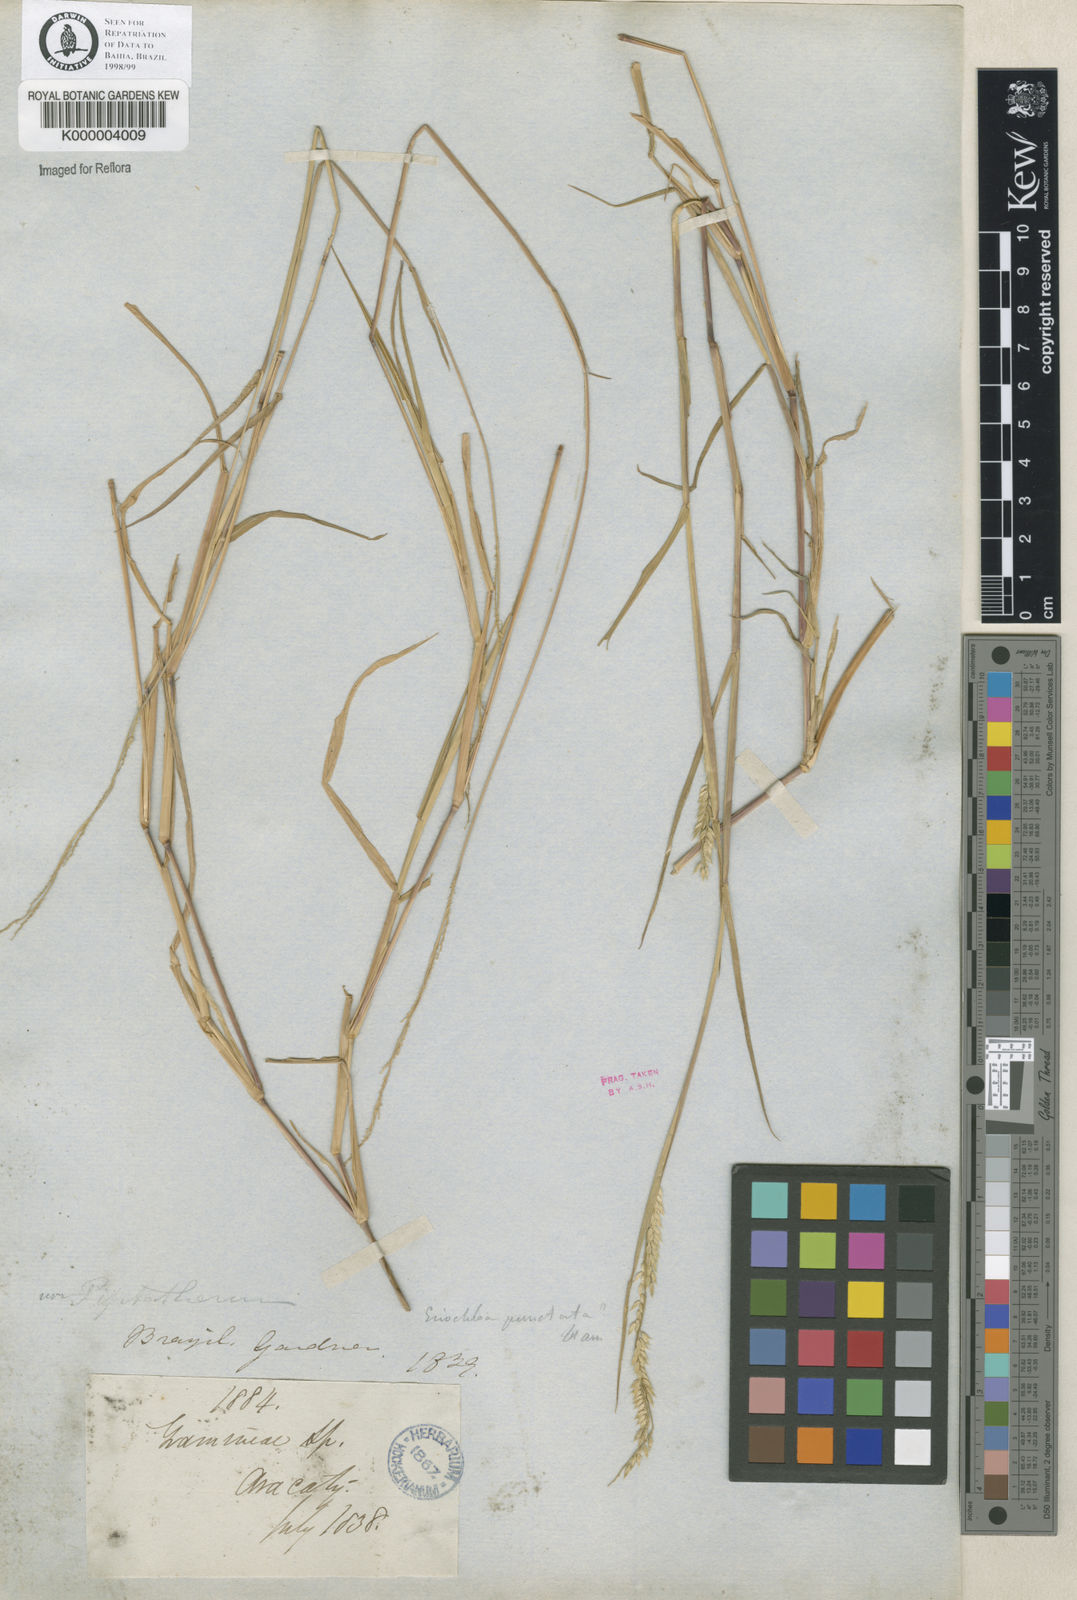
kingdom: Plantae
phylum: Tracheophyta
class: Liliopsida
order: Poales
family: Poaceae
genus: Eriochloa
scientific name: Eriochloa
